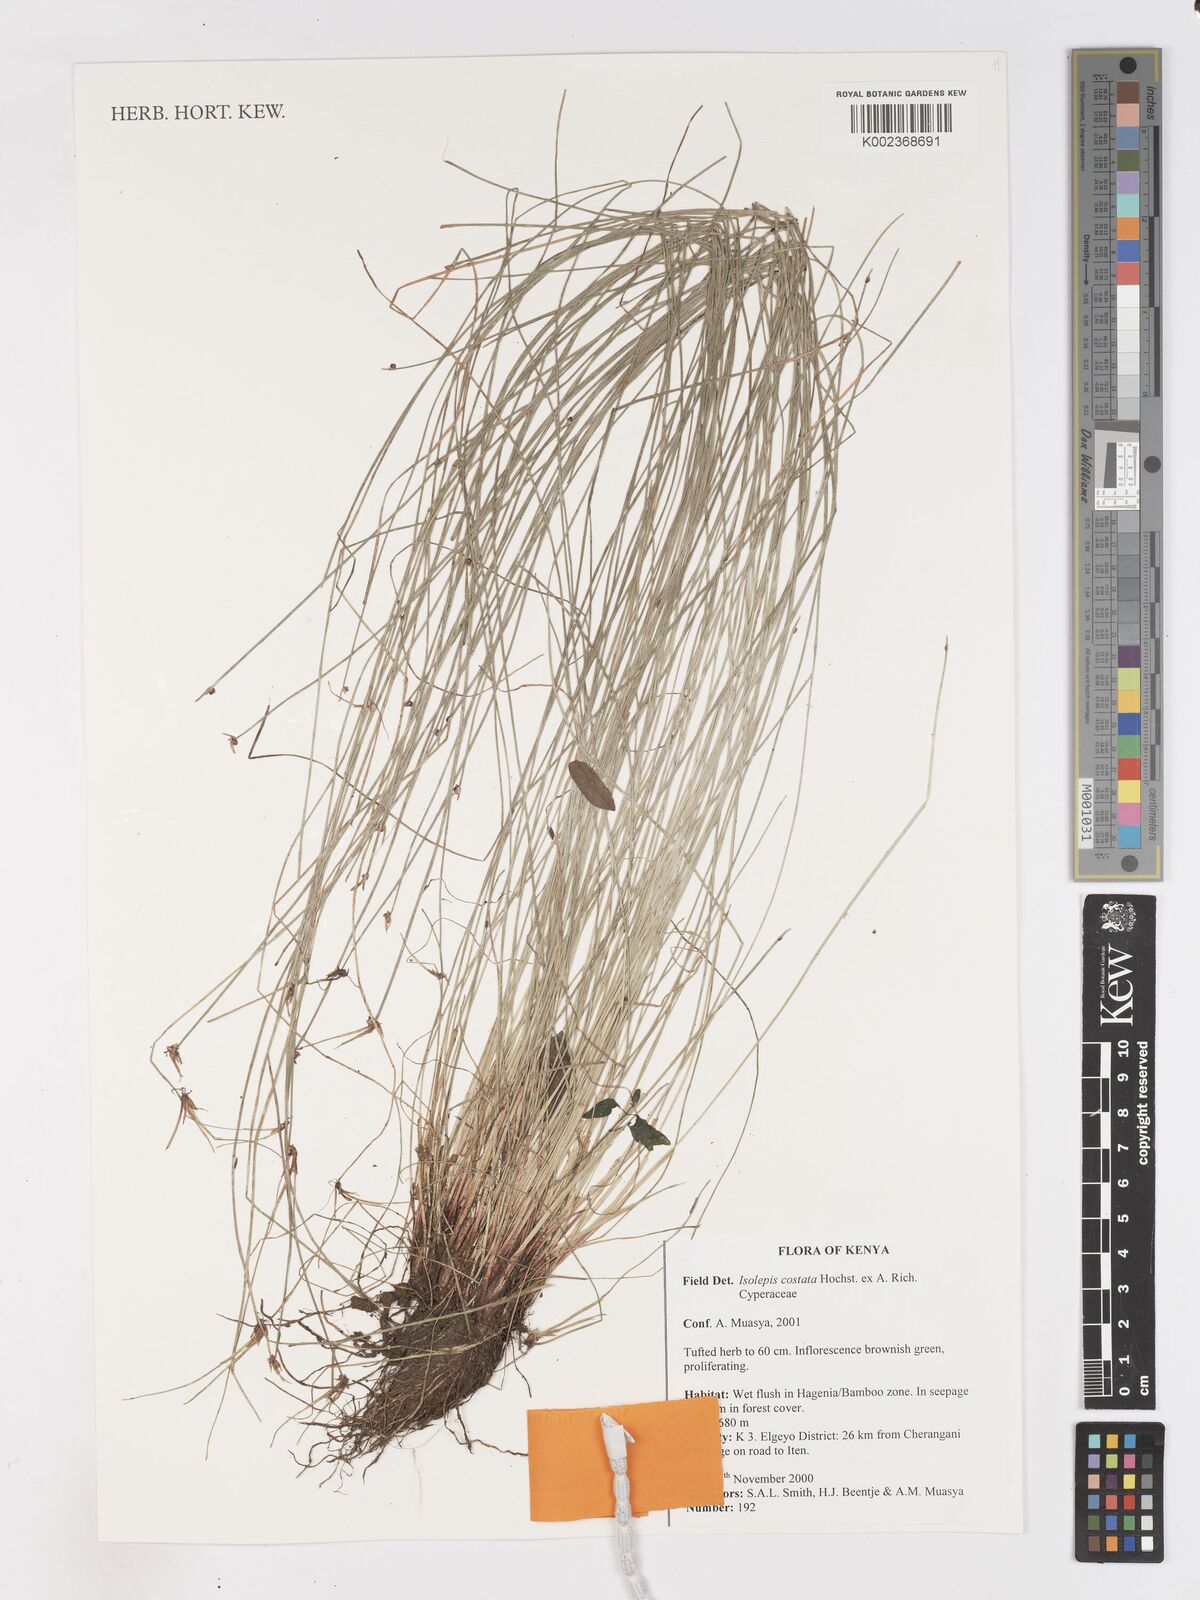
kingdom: Plantae
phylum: Tracheophyta
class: Liliopsida
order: Poales
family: Cyperaceae
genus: Isolepis
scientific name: Isolepis costata
